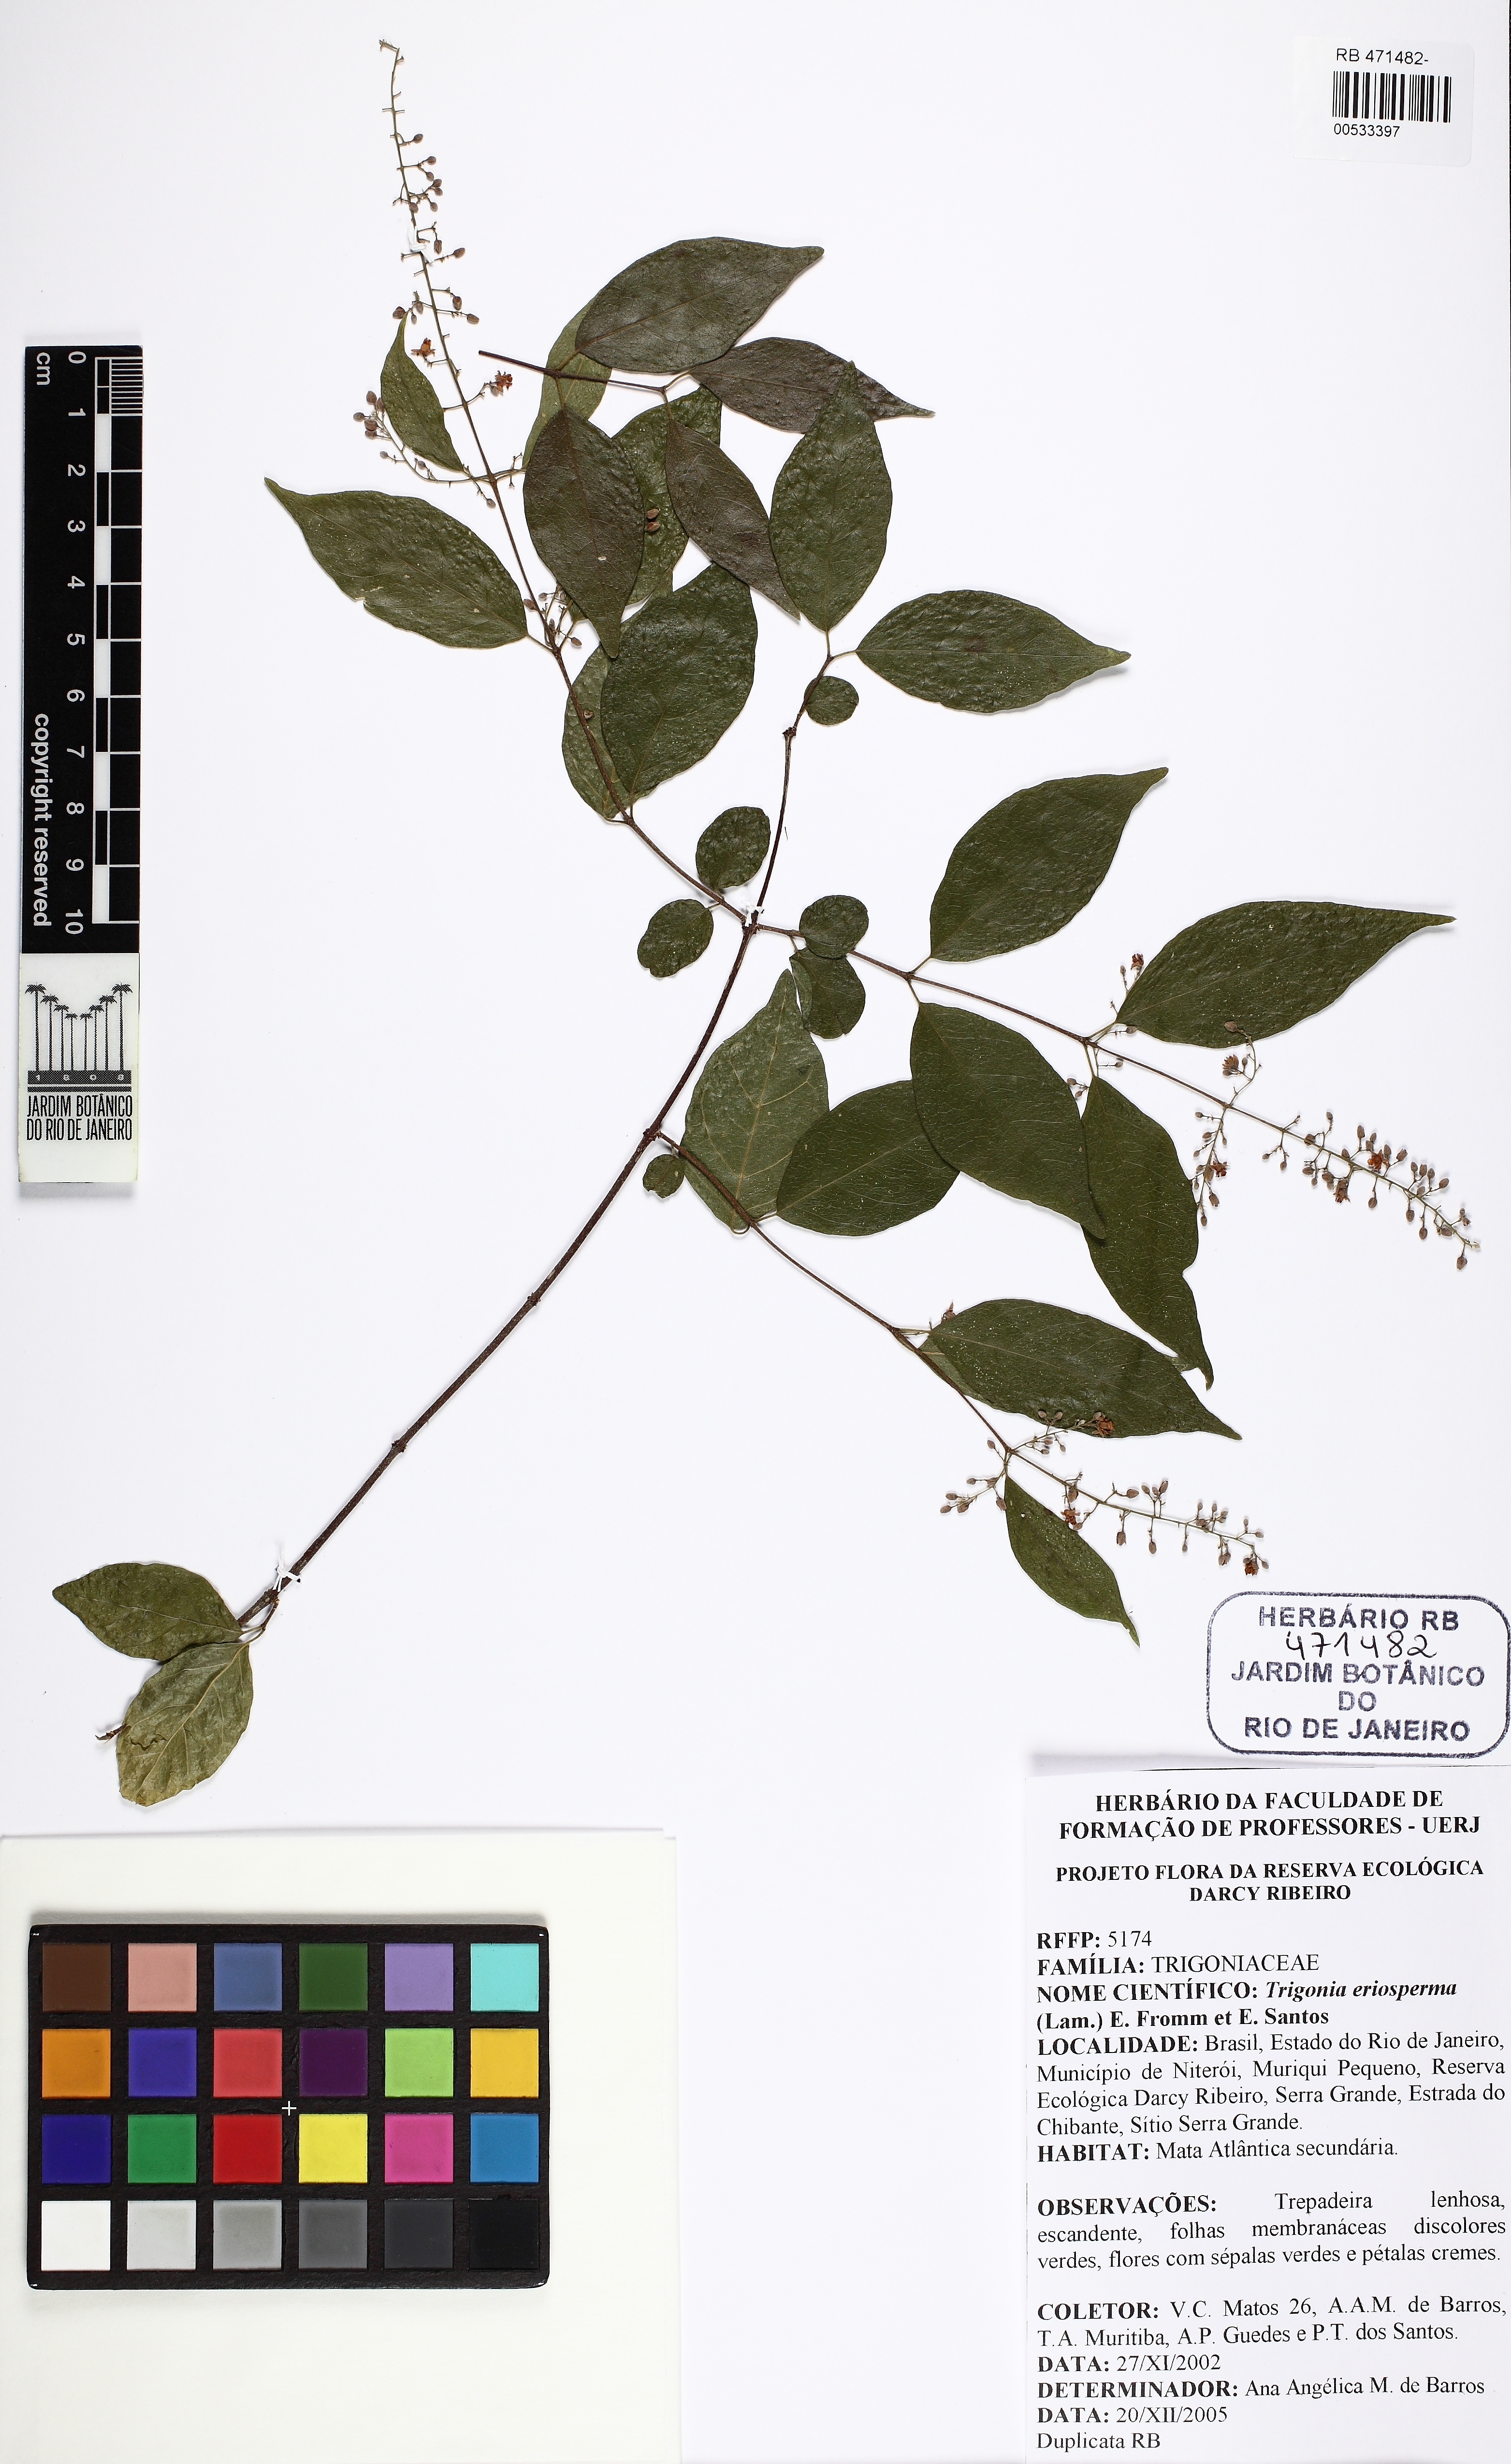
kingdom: Plantae
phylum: Tracheophyta
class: Magnoliopsida
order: Malpighiales
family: Trigoniaceae
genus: Trigonia
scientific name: Trigonia eriosperma
